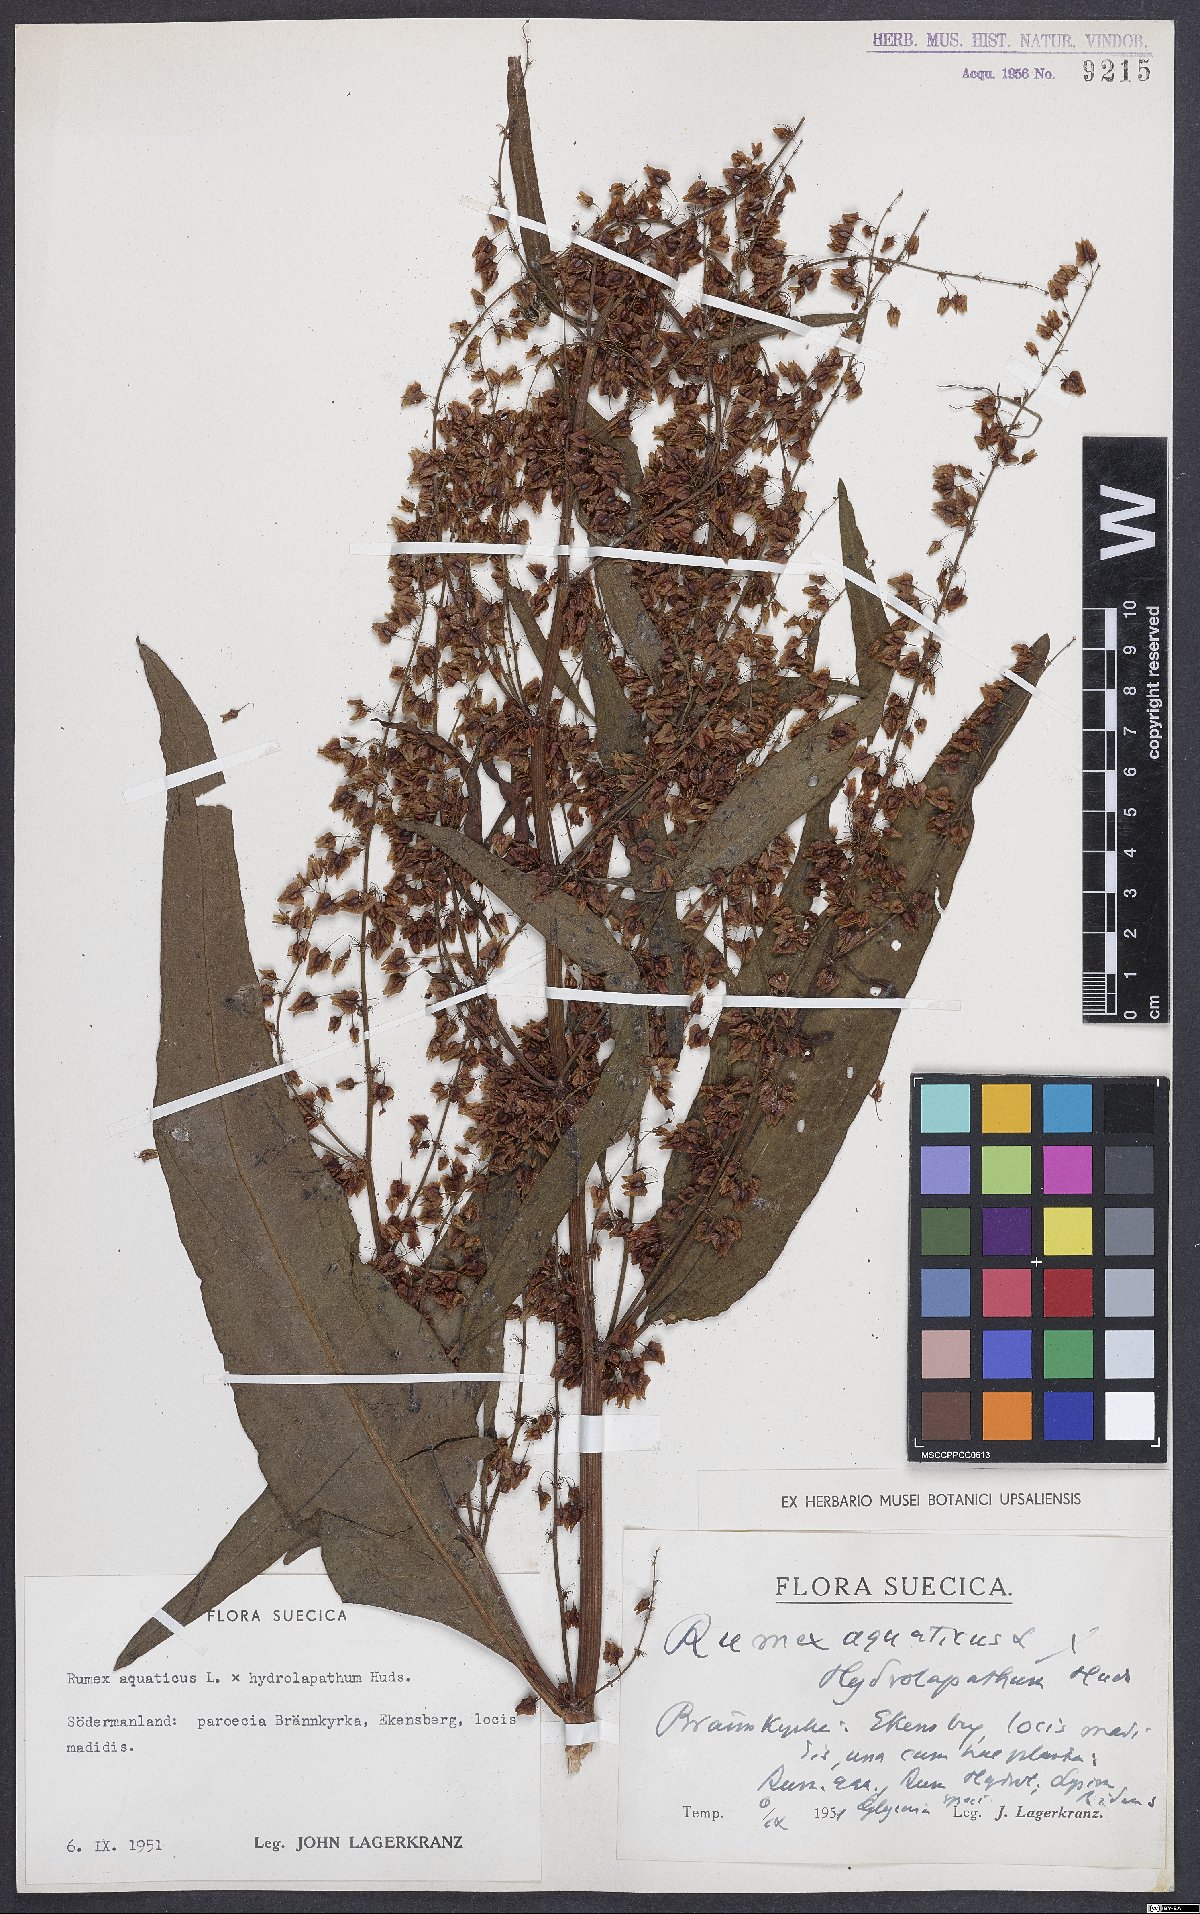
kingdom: Plantae
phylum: Tracheophyta
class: Magnoliopsida
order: Caryophyllales
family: Polygonaceae
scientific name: Polygonaceae
